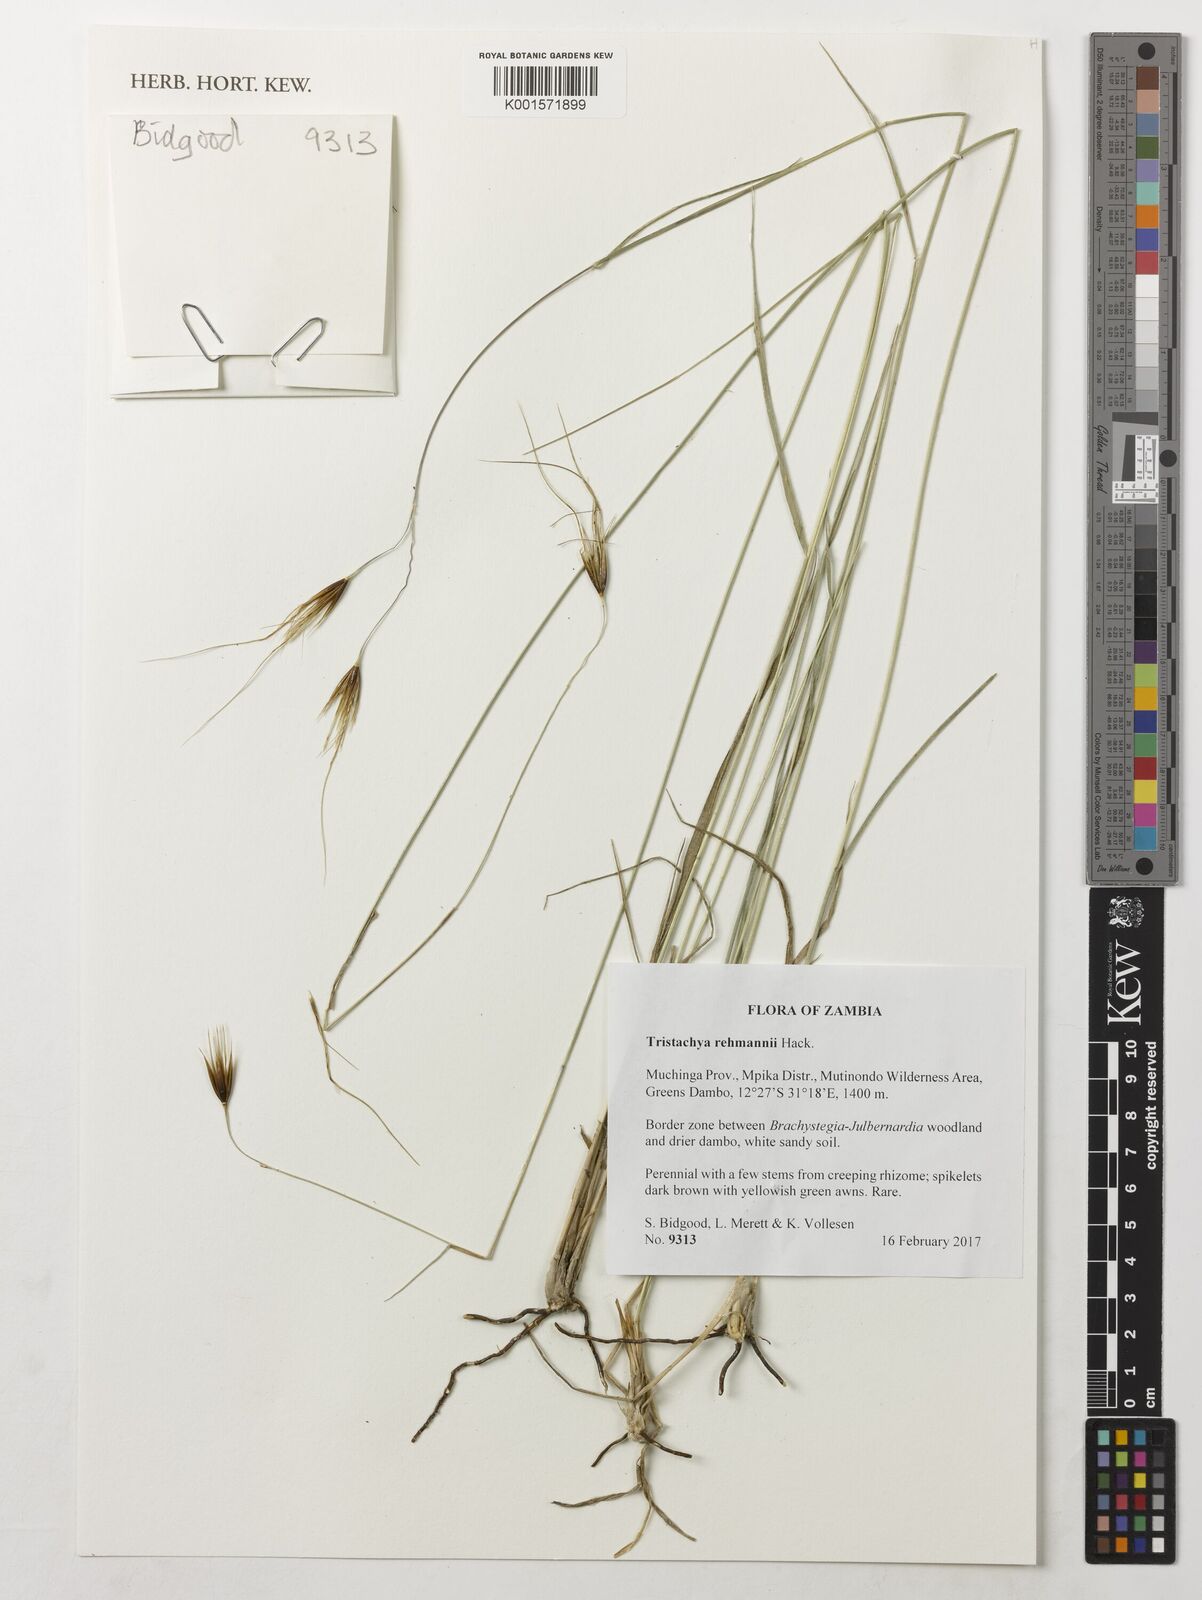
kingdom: Plantae
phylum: Tracheophyta
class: Liliopsida
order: Poales
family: Poaceae
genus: Tristachya
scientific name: Tristachya rehmannii
